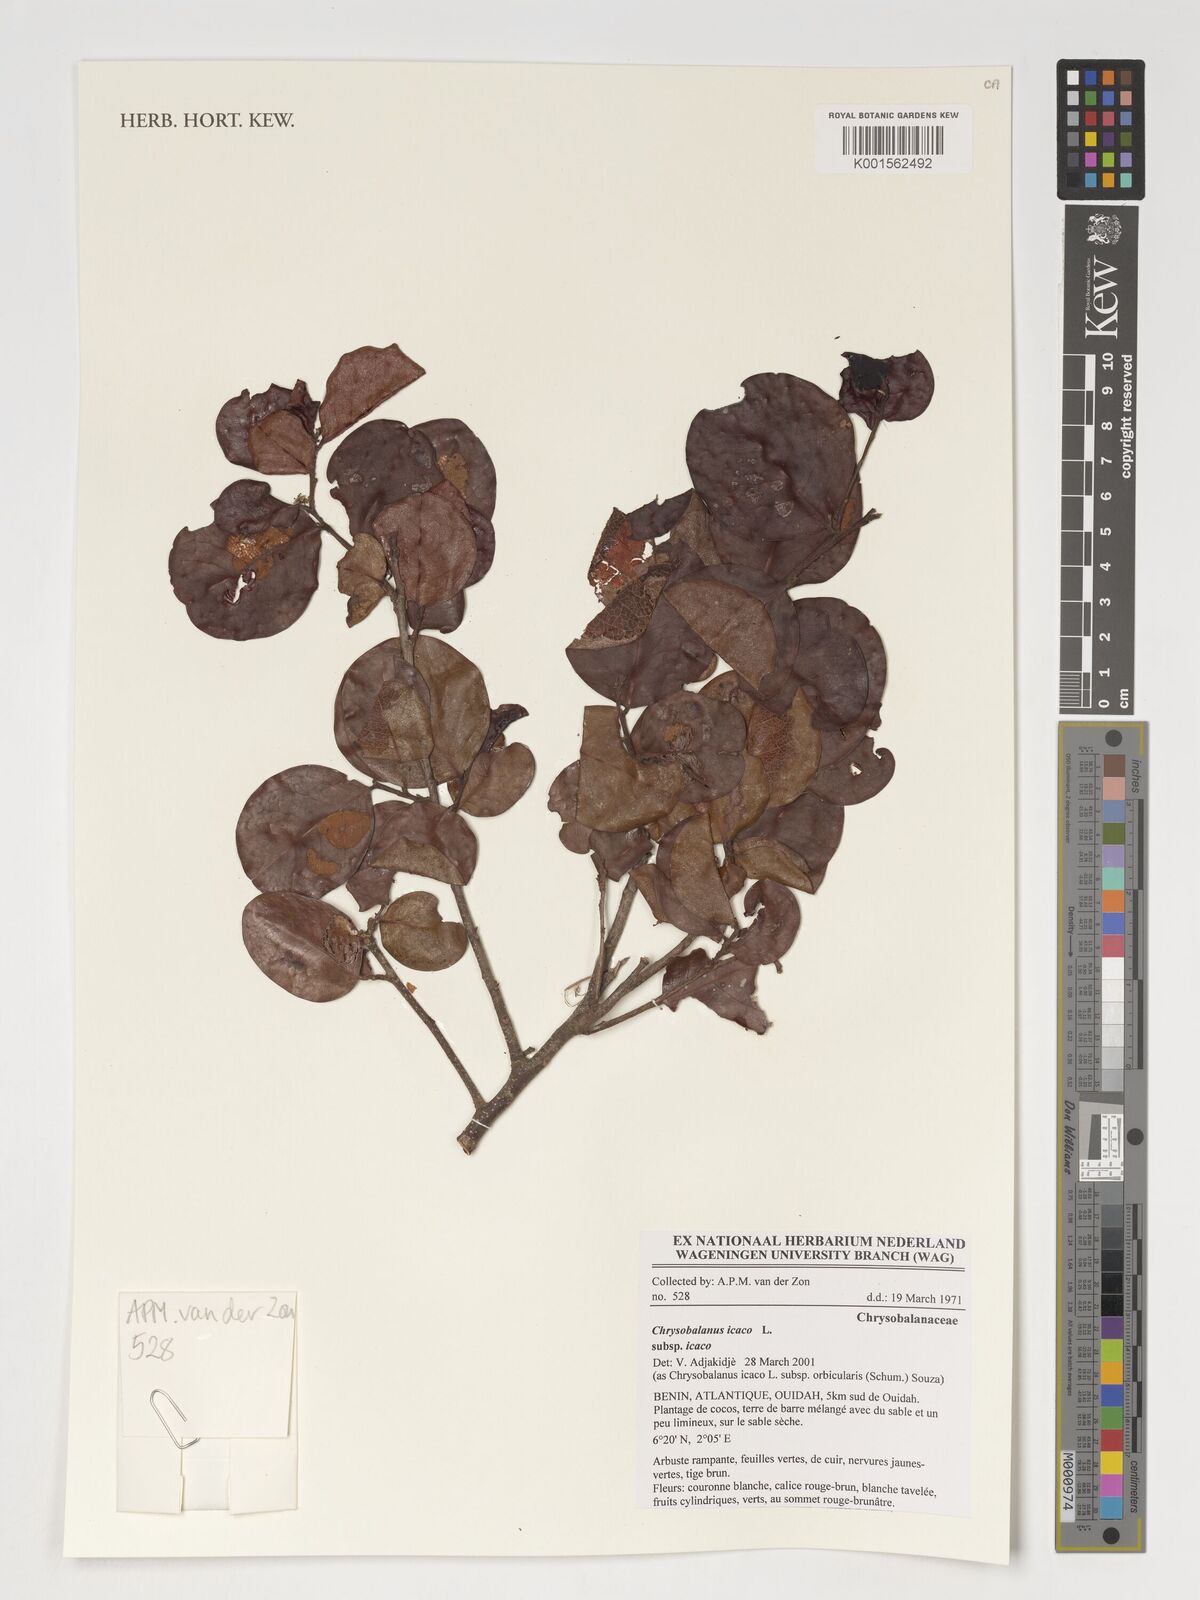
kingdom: Plantae
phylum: Tracheophyta
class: Magnoliopsida
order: Malpighiales
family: Chrysobalanaceae
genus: Chrysobalanus
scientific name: Chrysobalanus icaco
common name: Coco plum
